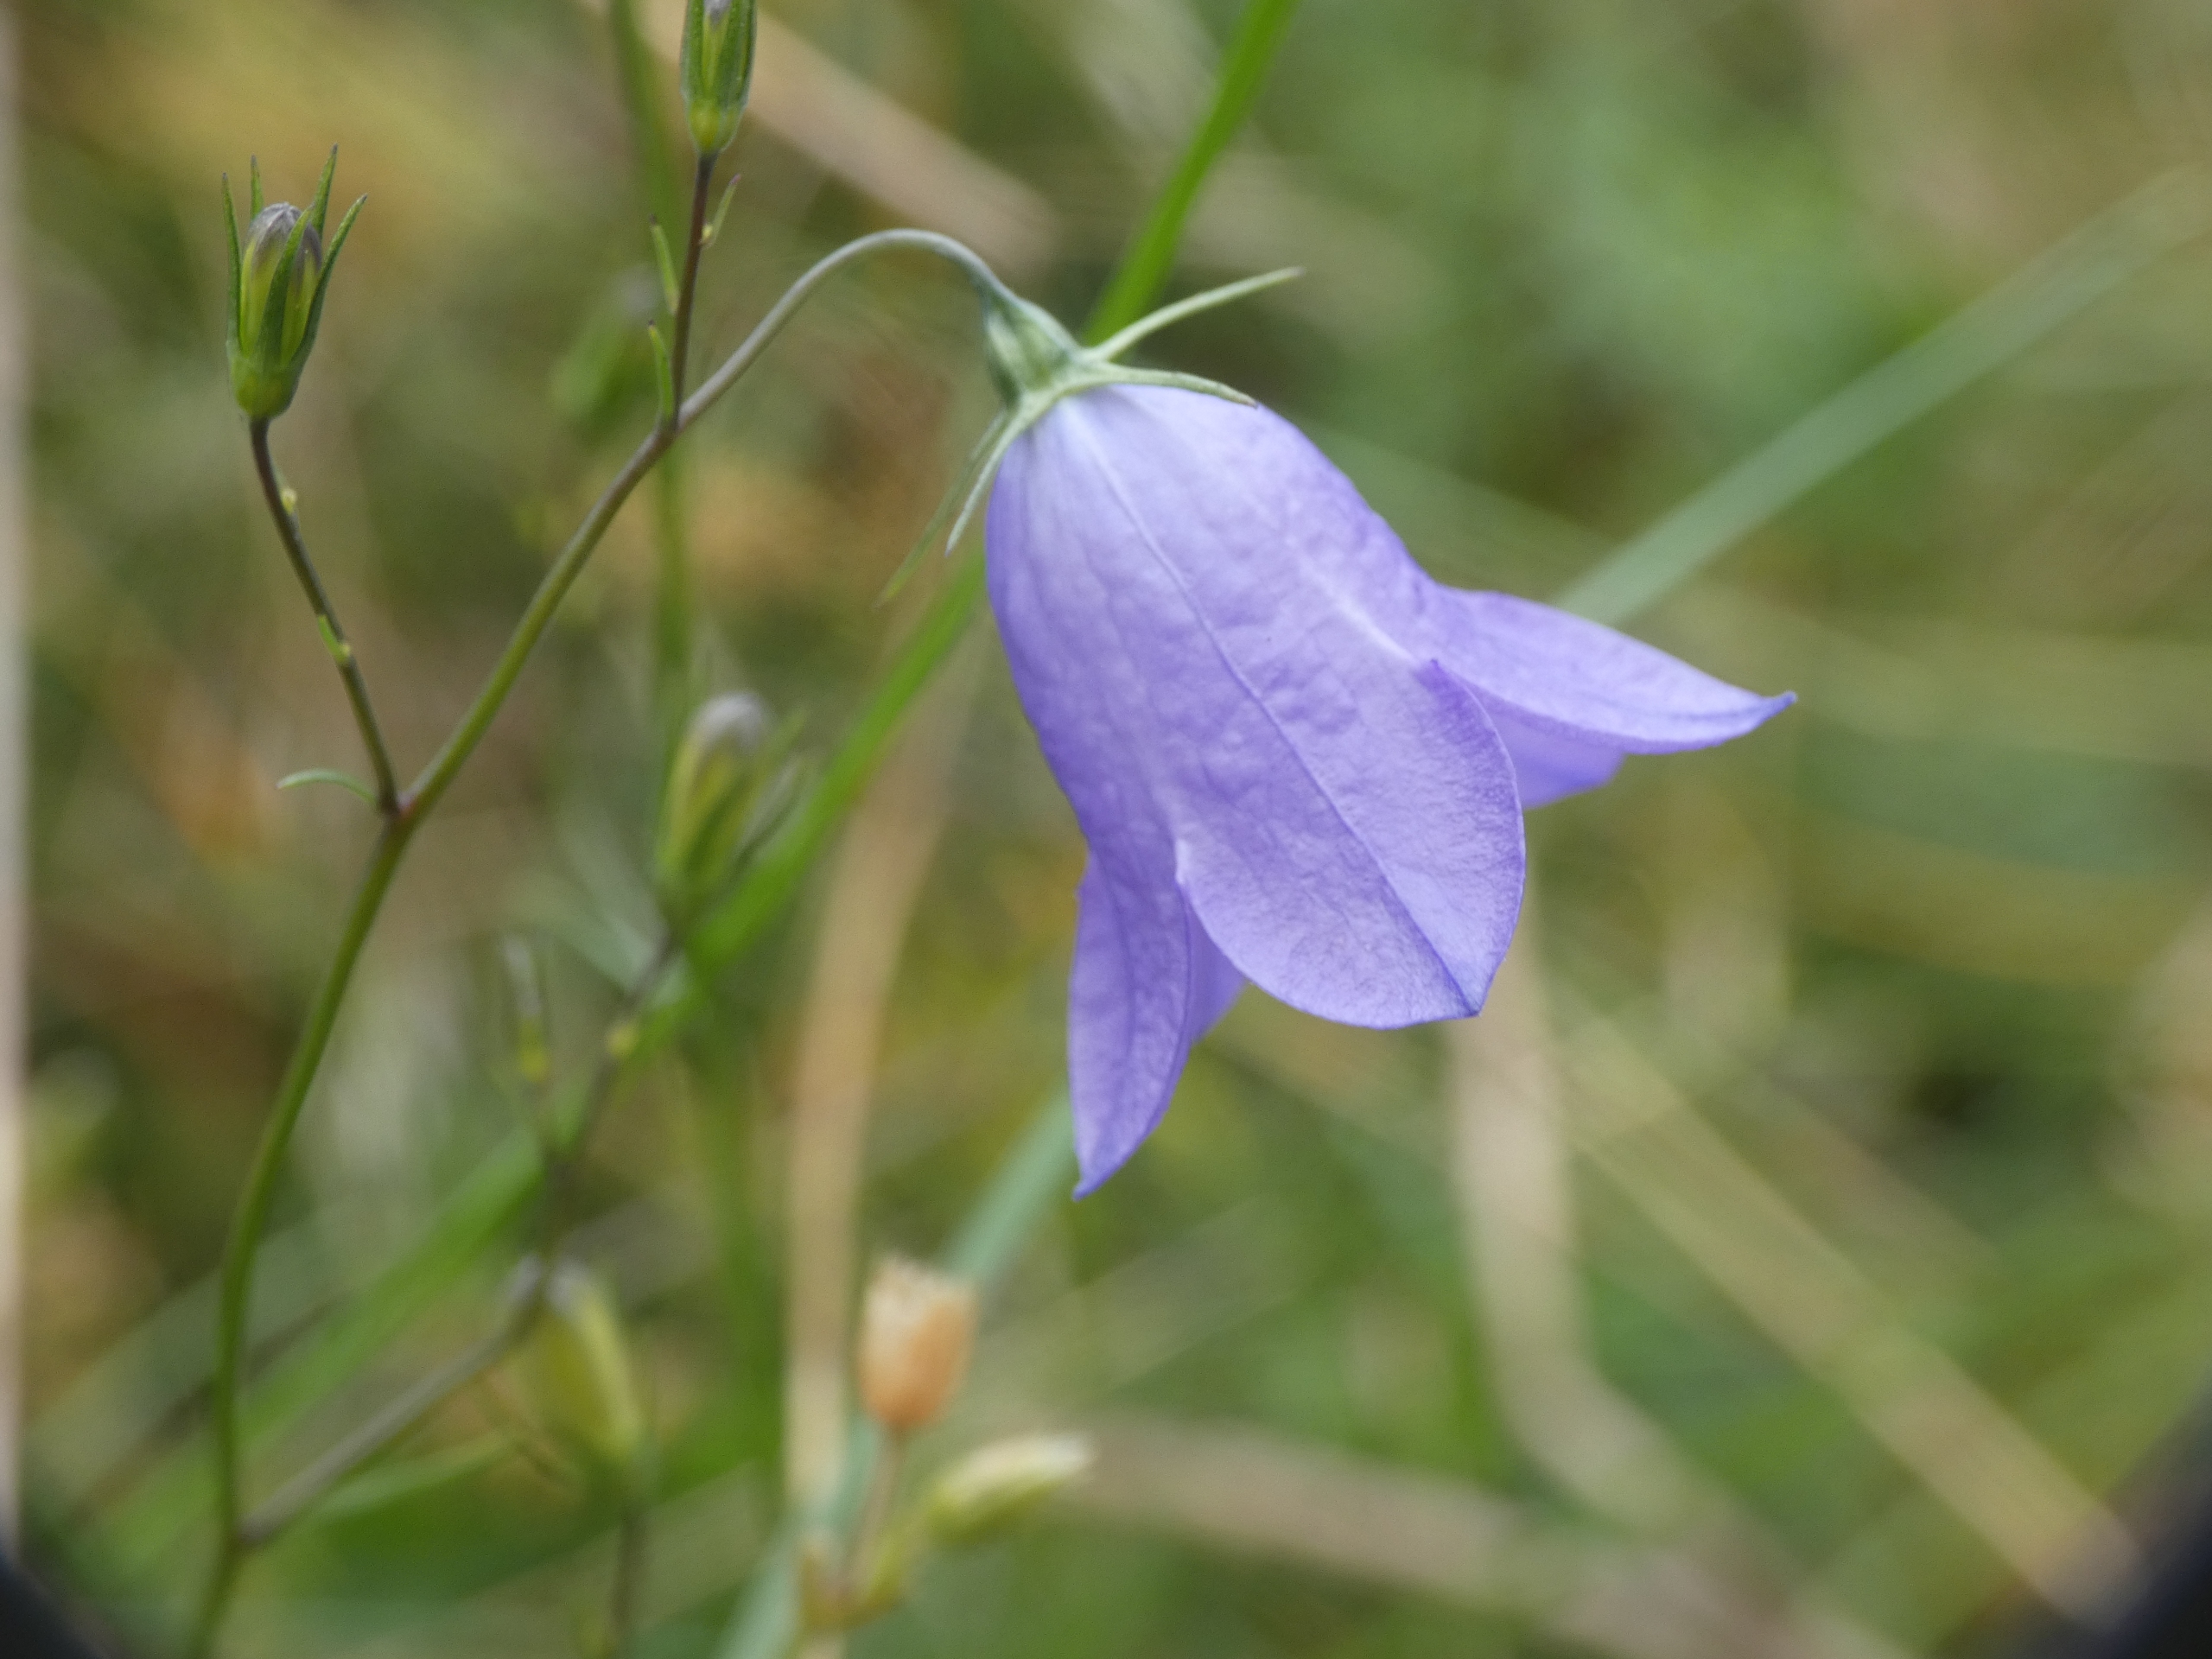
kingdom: Plantae
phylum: Tracheophyta
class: Magnoliopsida
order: Asterales
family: Campanulaceae
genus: Campanula
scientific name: Campanula rotundifolia
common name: Liden klokke
